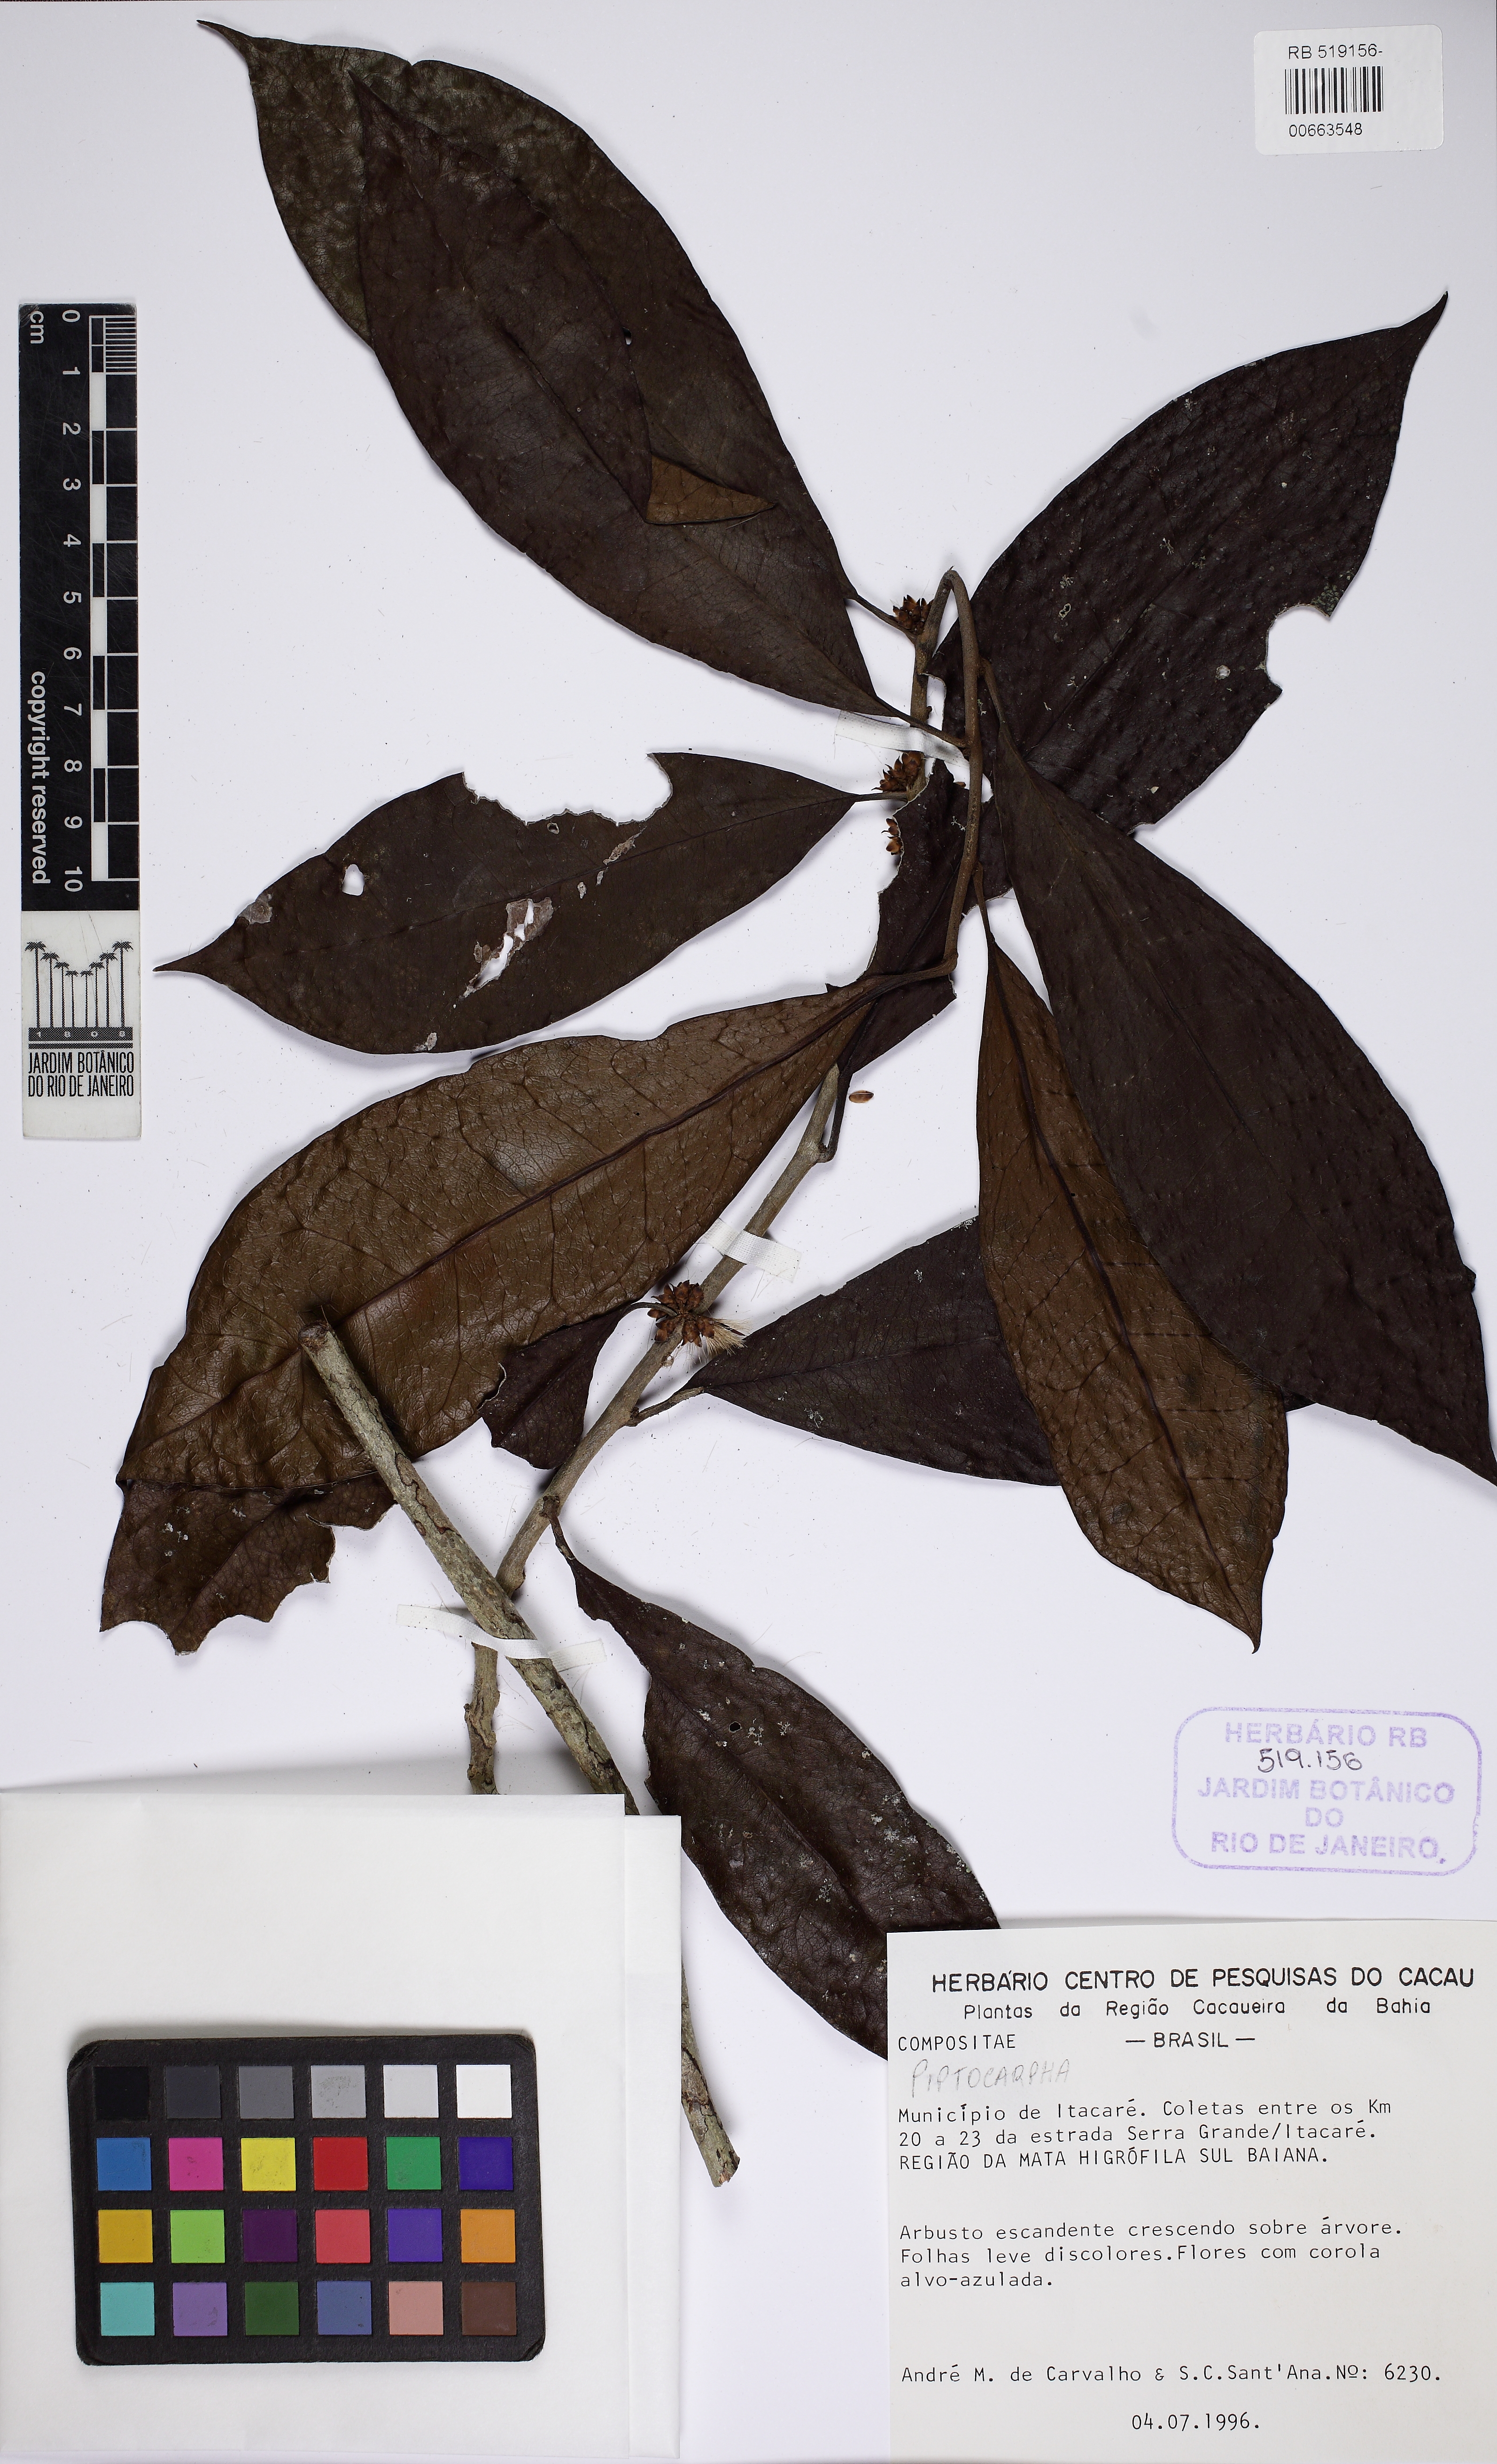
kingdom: Plantae
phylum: Tracheophyta
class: Magnoliopsida
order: Asterales
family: Asteraceae
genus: Piptocarpha
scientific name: Piptocarpha riedelii
